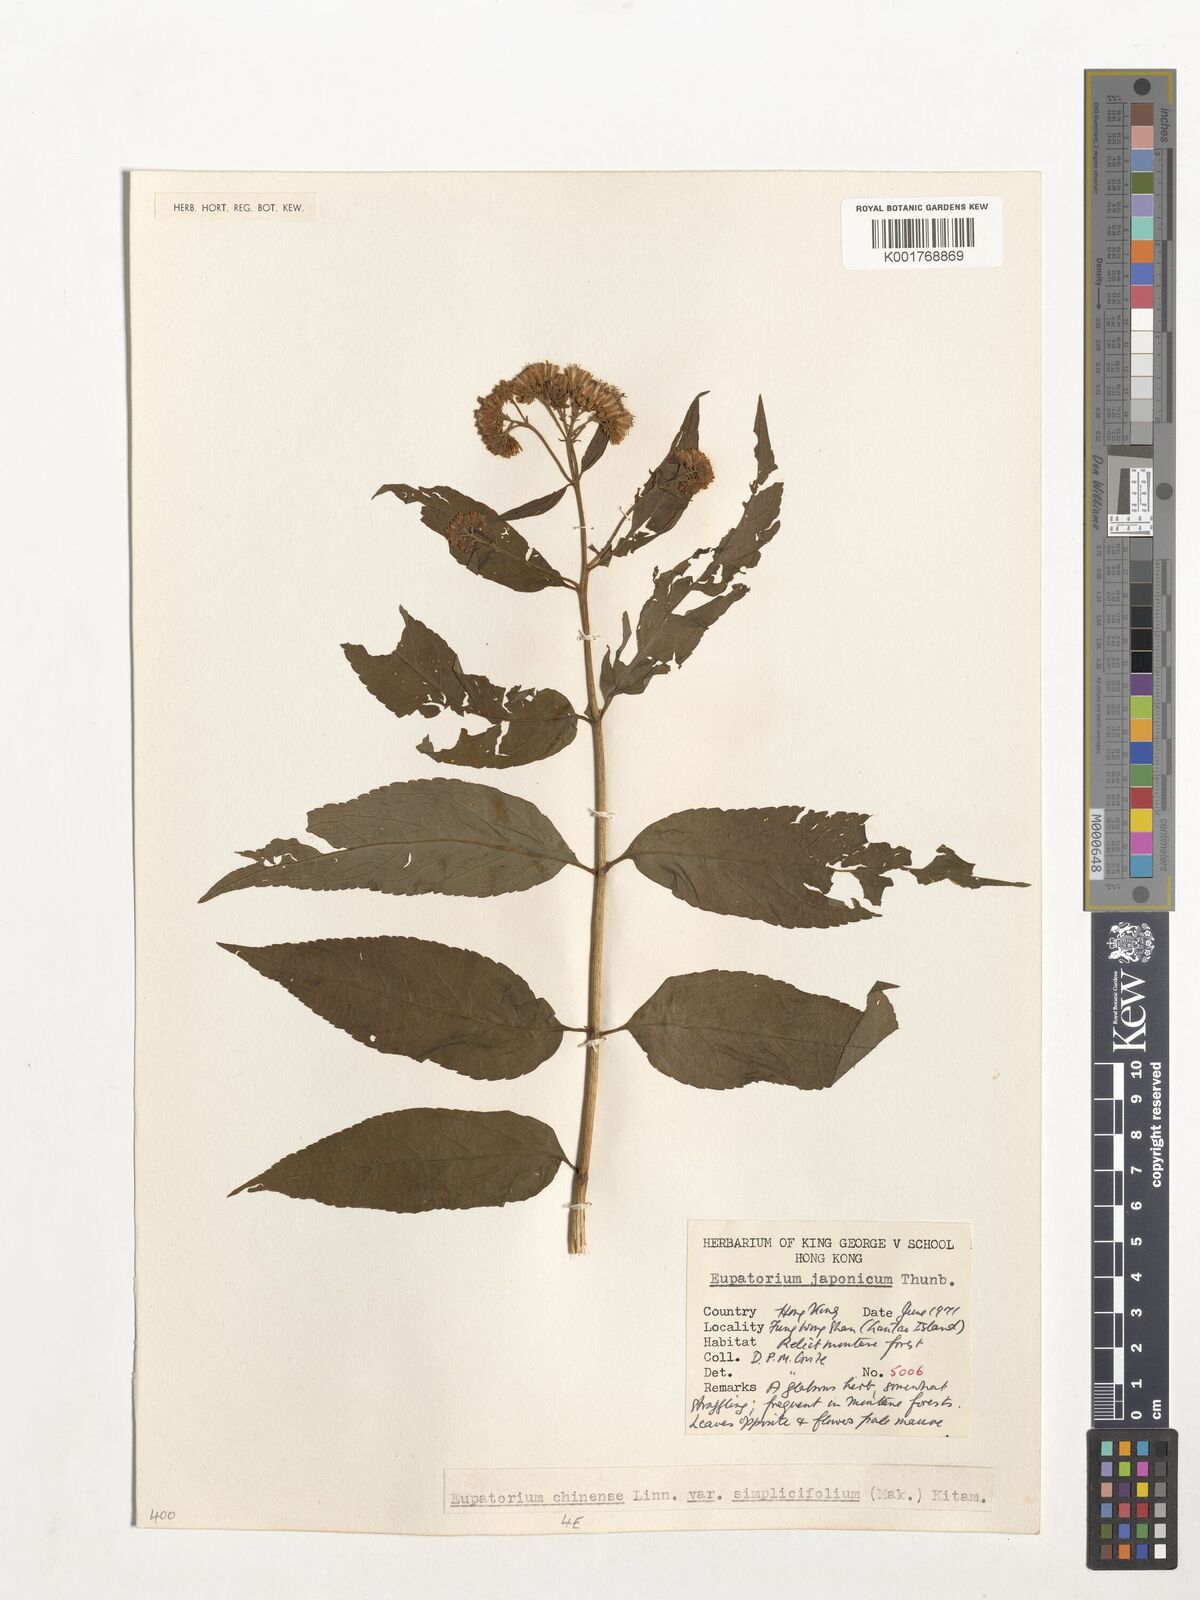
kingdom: Plantae
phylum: Tracheophyta
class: Magnoliopsida
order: Asterales
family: Asteraceae
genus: Eupatorium
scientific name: Eupatorium chinense
